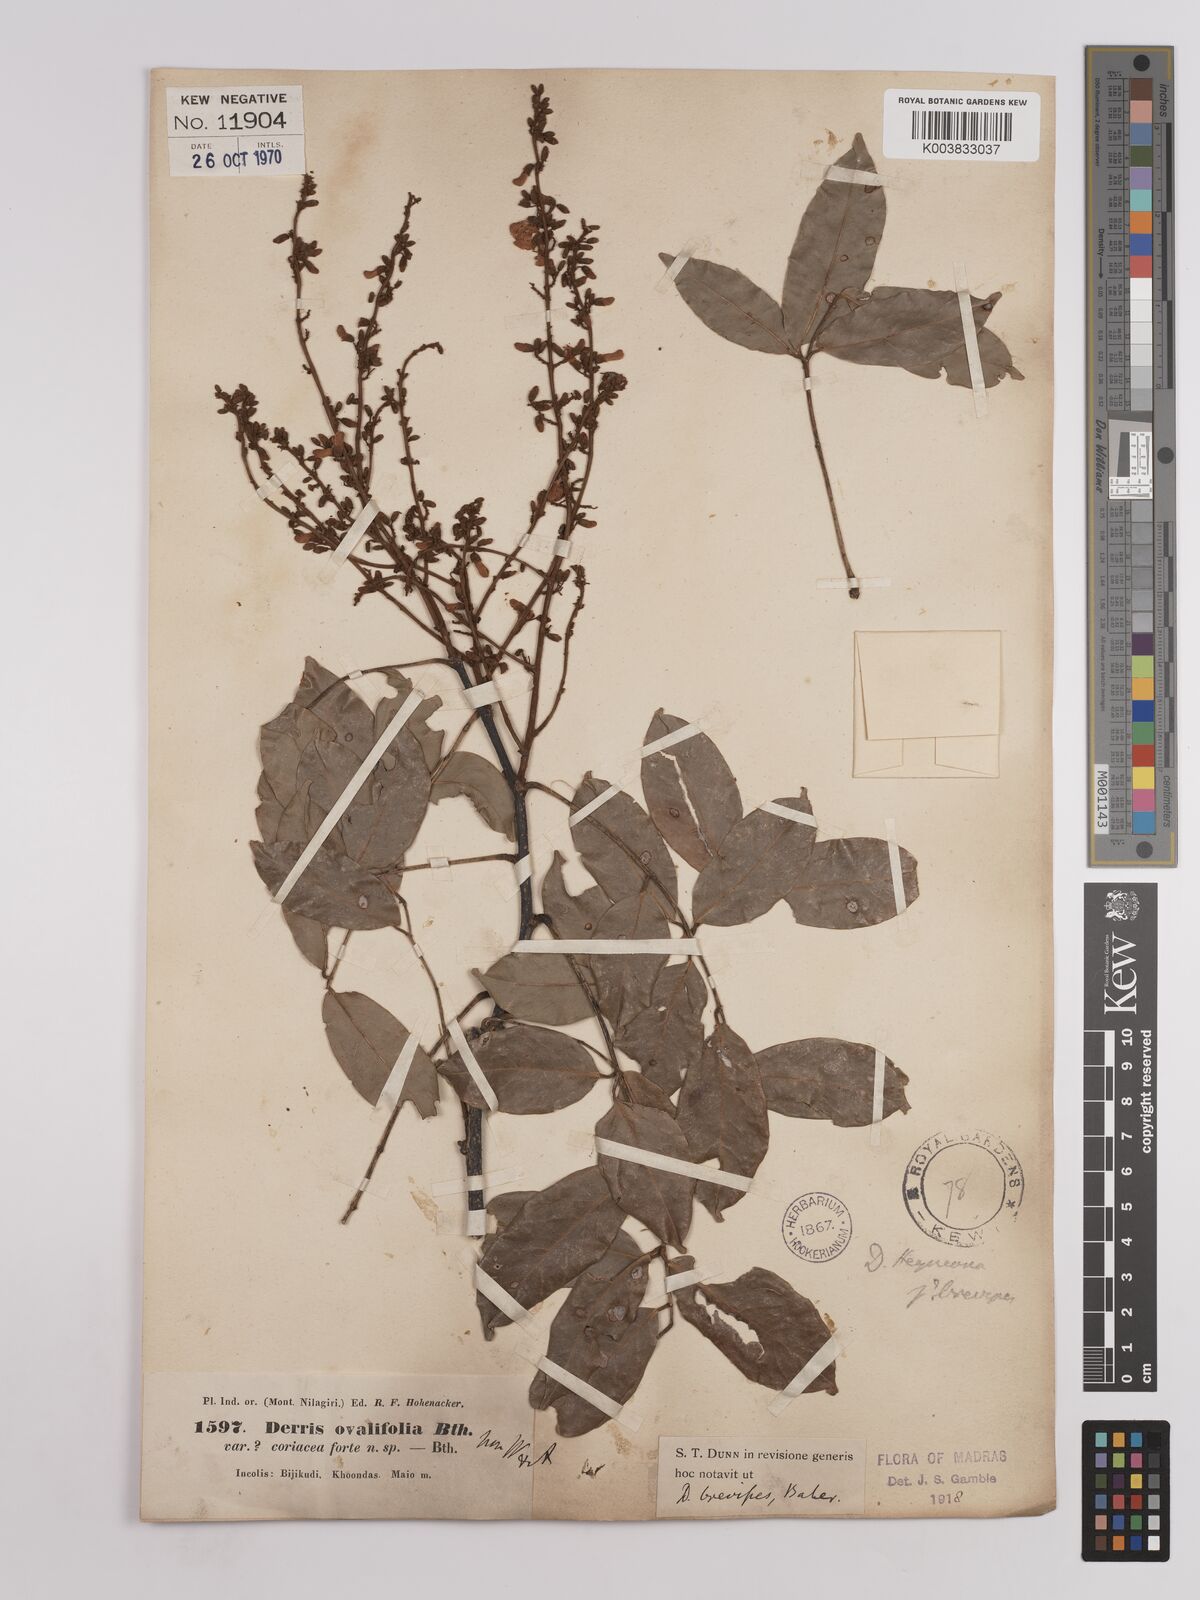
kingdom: Plantae
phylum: Tracheophyta
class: Magnoliopsida
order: Fabales
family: Fabaceae
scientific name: Fabaceae
